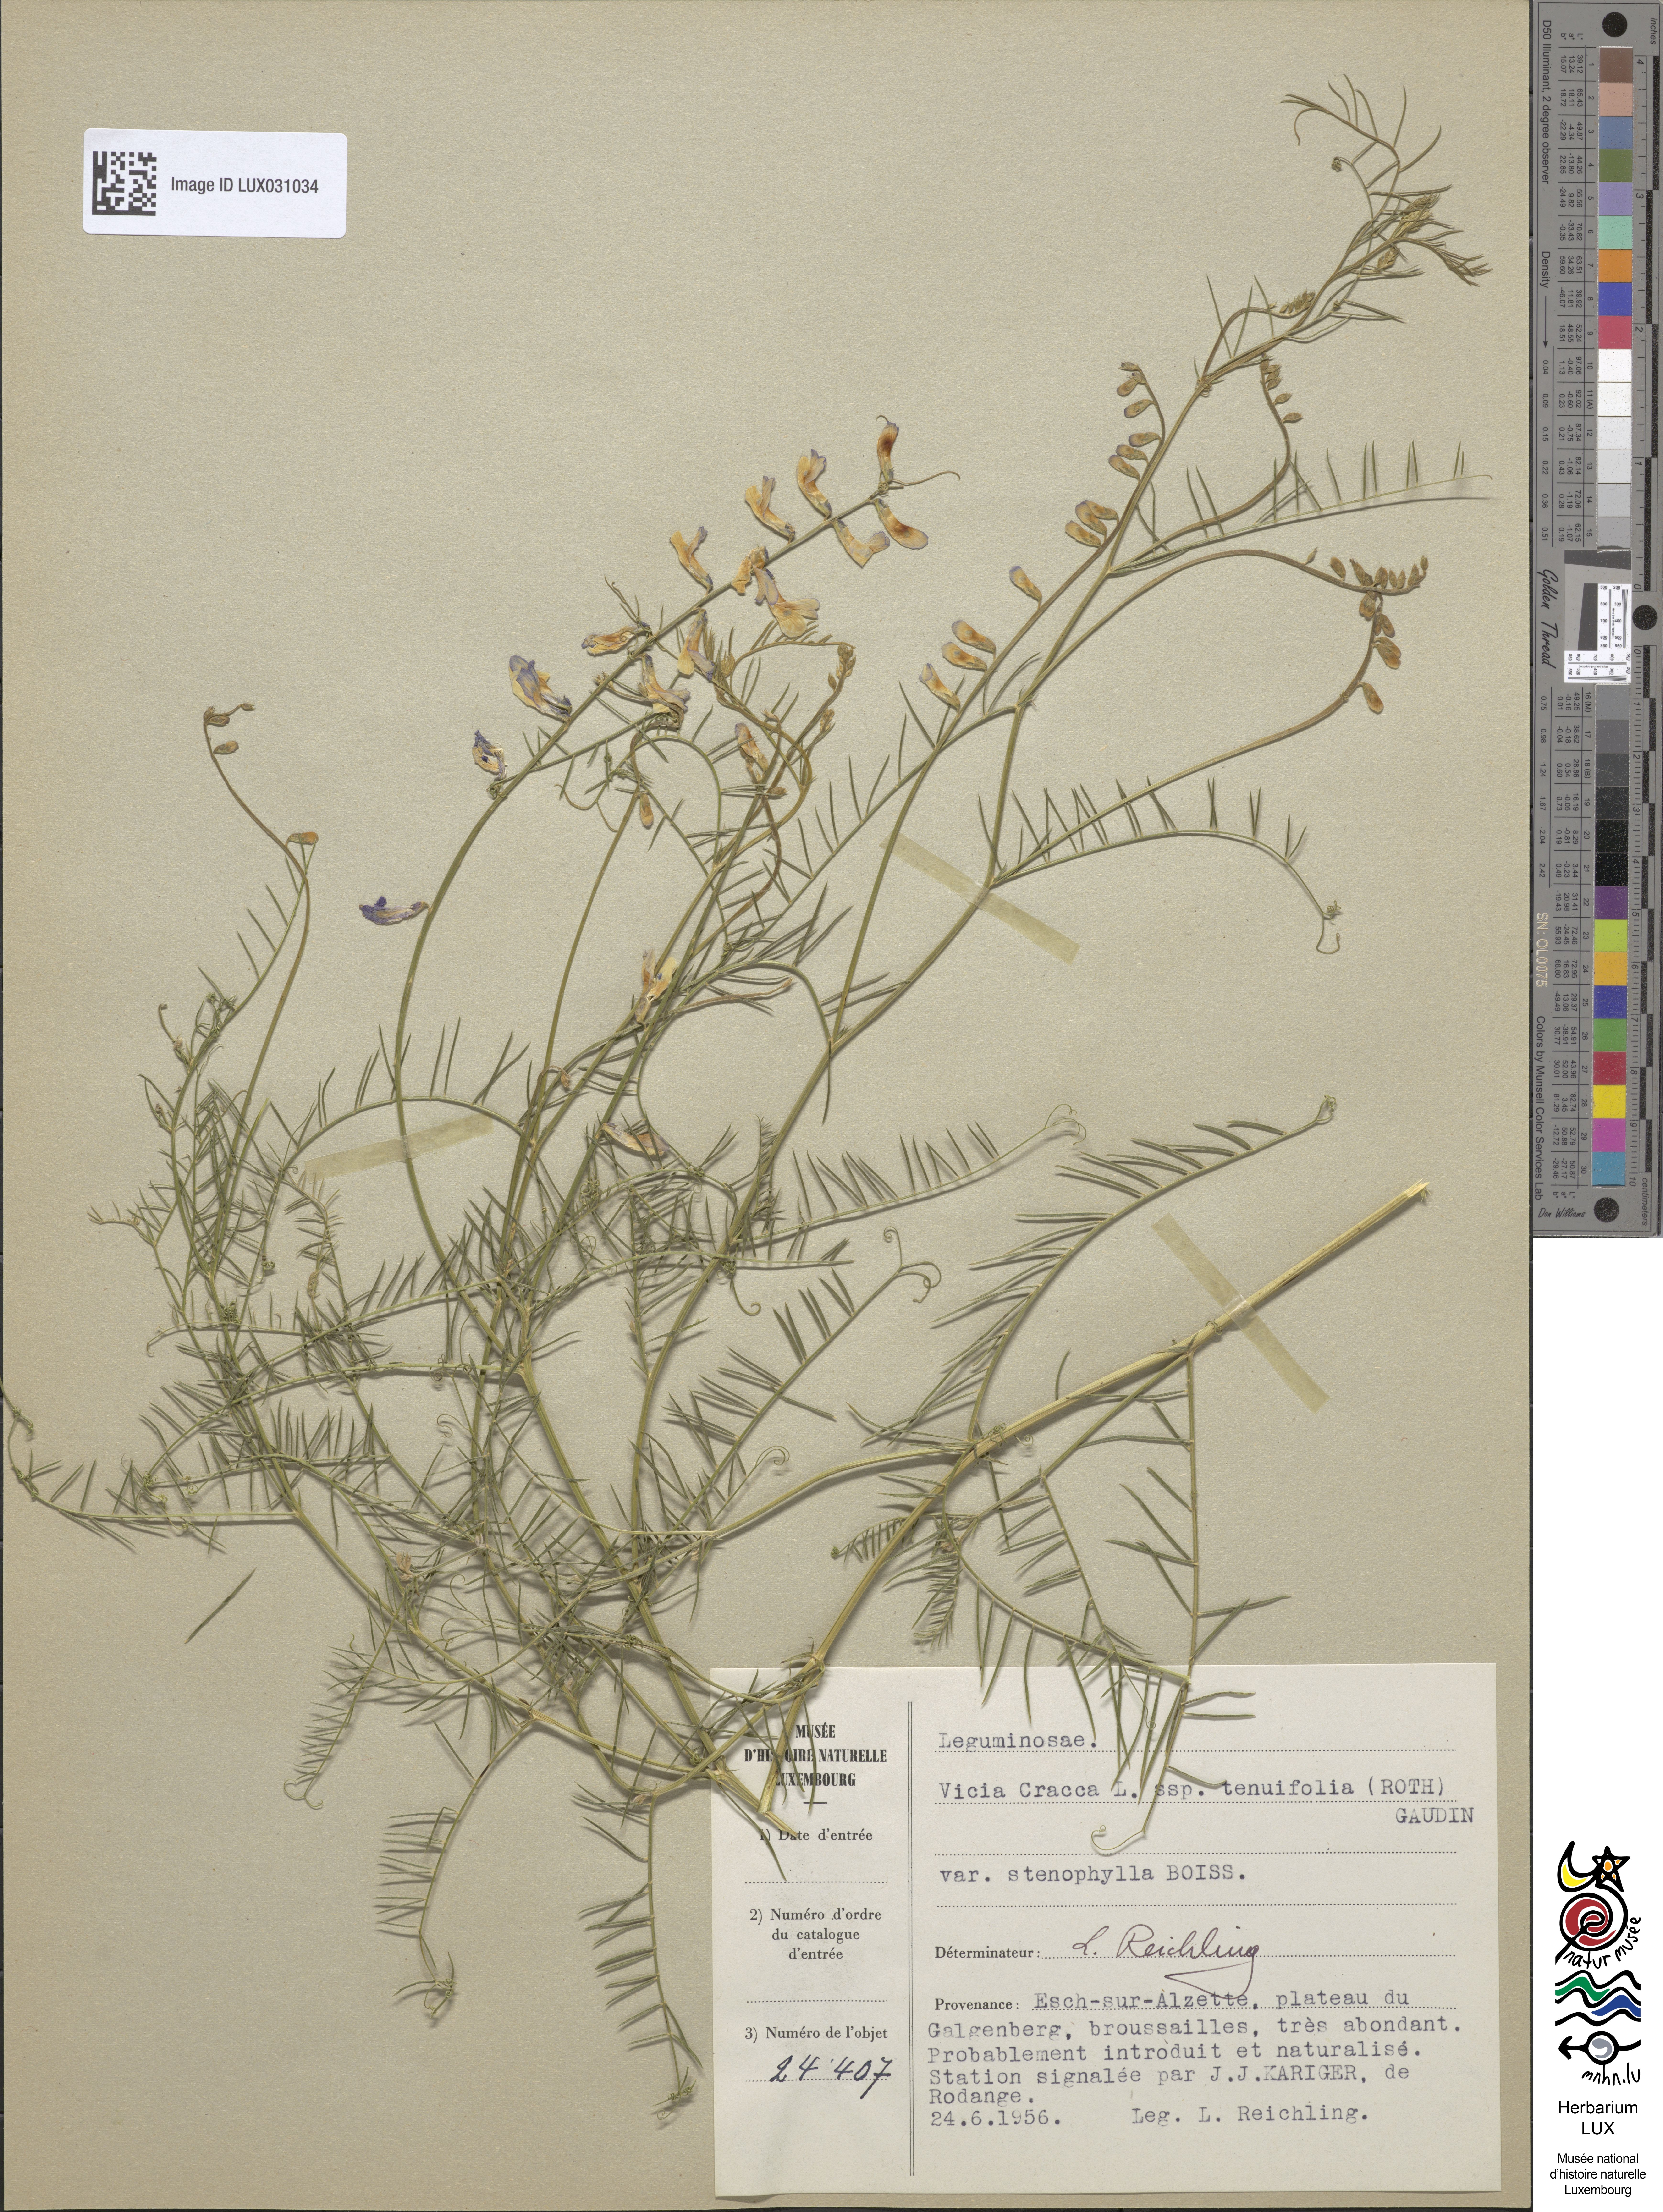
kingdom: Plantae
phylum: Tracheophyta
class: Magnoliopsida
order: Fabales
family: Fabaceae
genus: Vicia
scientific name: Vicia dalmatica
